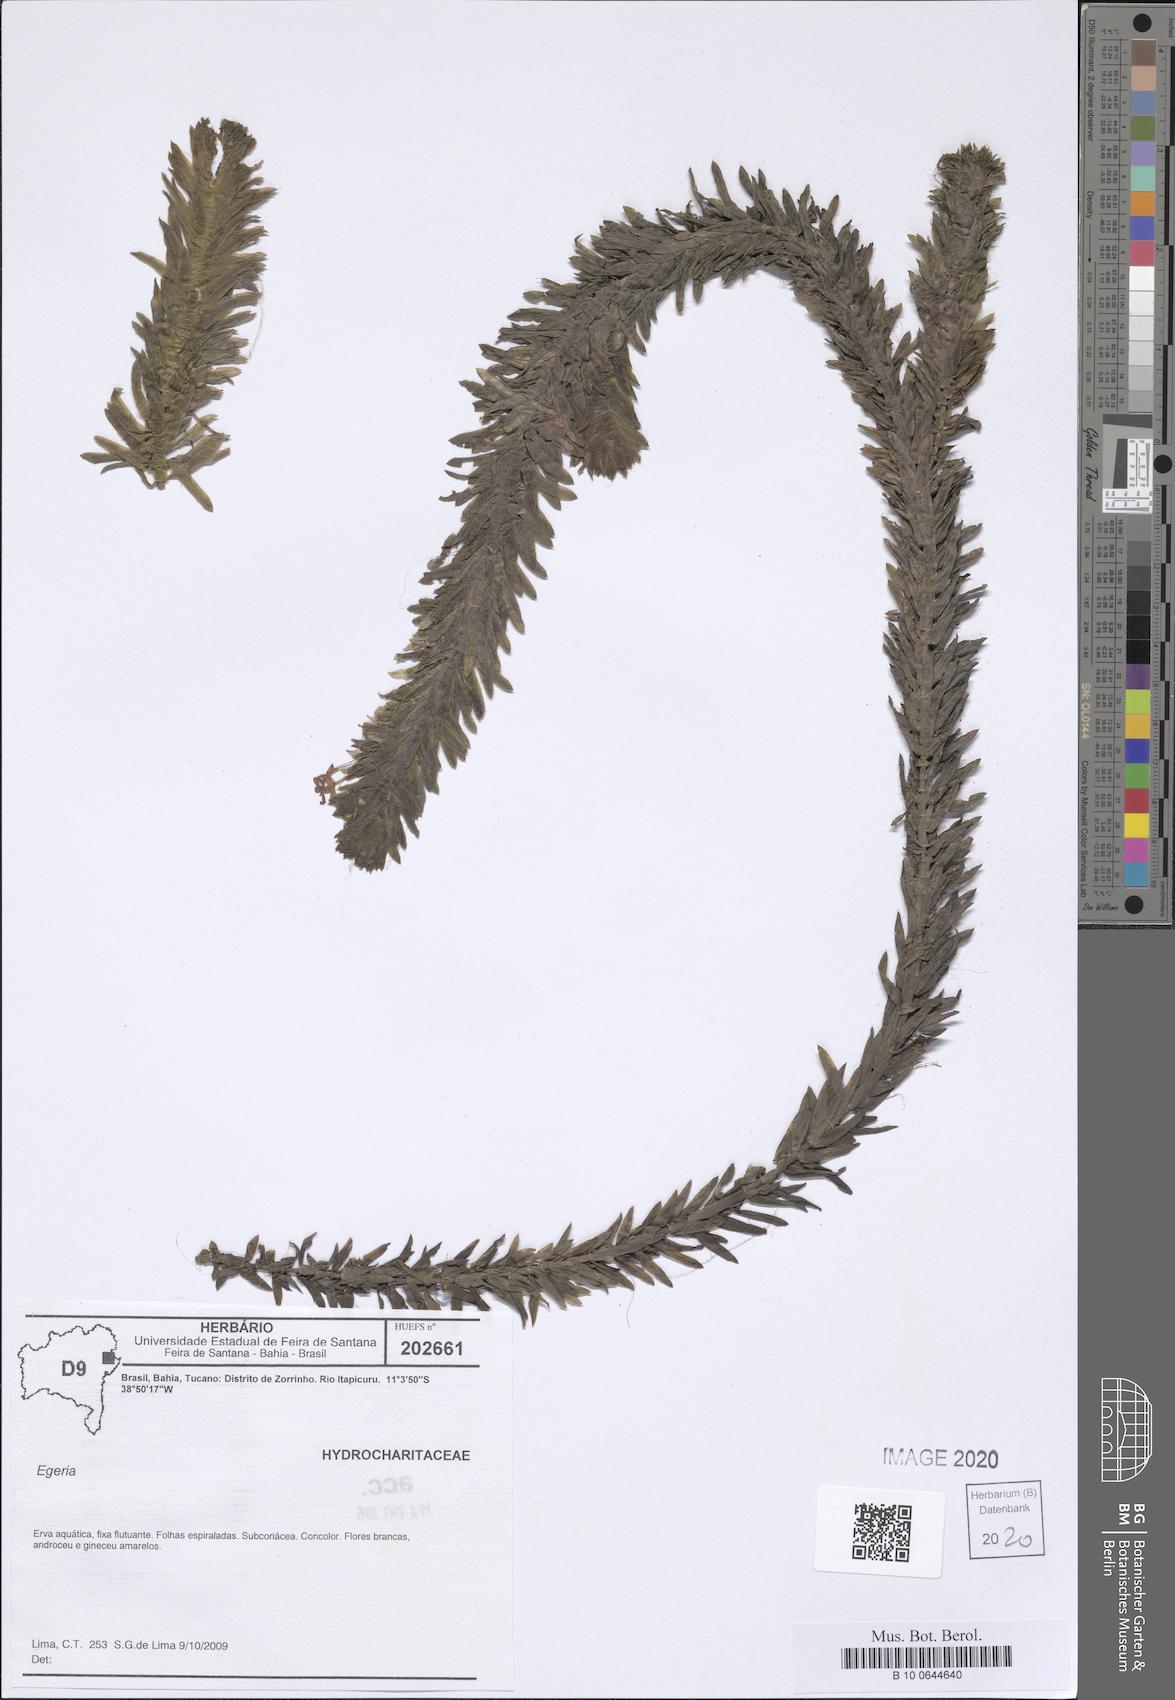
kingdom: Plantae
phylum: Tracheophyta
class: Liliopsida
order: Alismatales
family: Hydrocharitaceae
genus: Elodea
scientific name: Elodea
